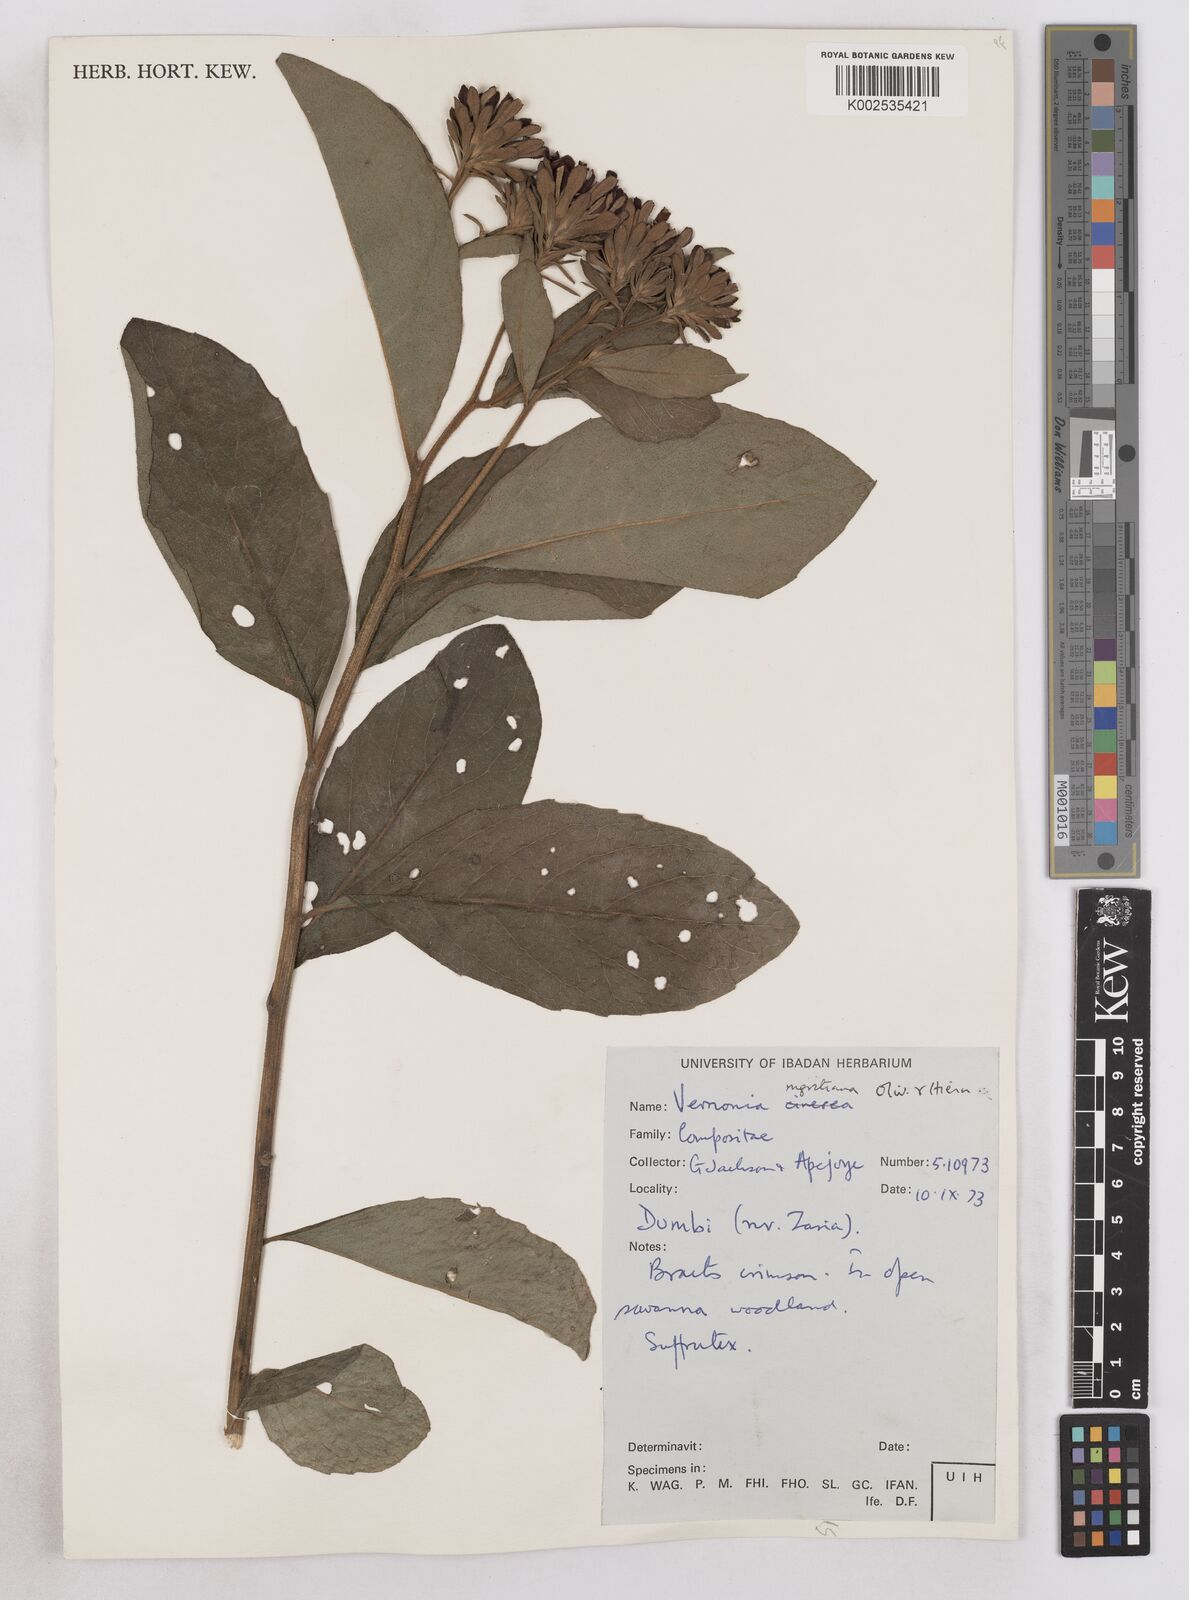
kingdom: Plantae
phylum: Tracheophyta
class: Magnoliopsida
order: Asterales
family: Asteraceae
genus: Linzia
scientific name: Linzia nigritiana
